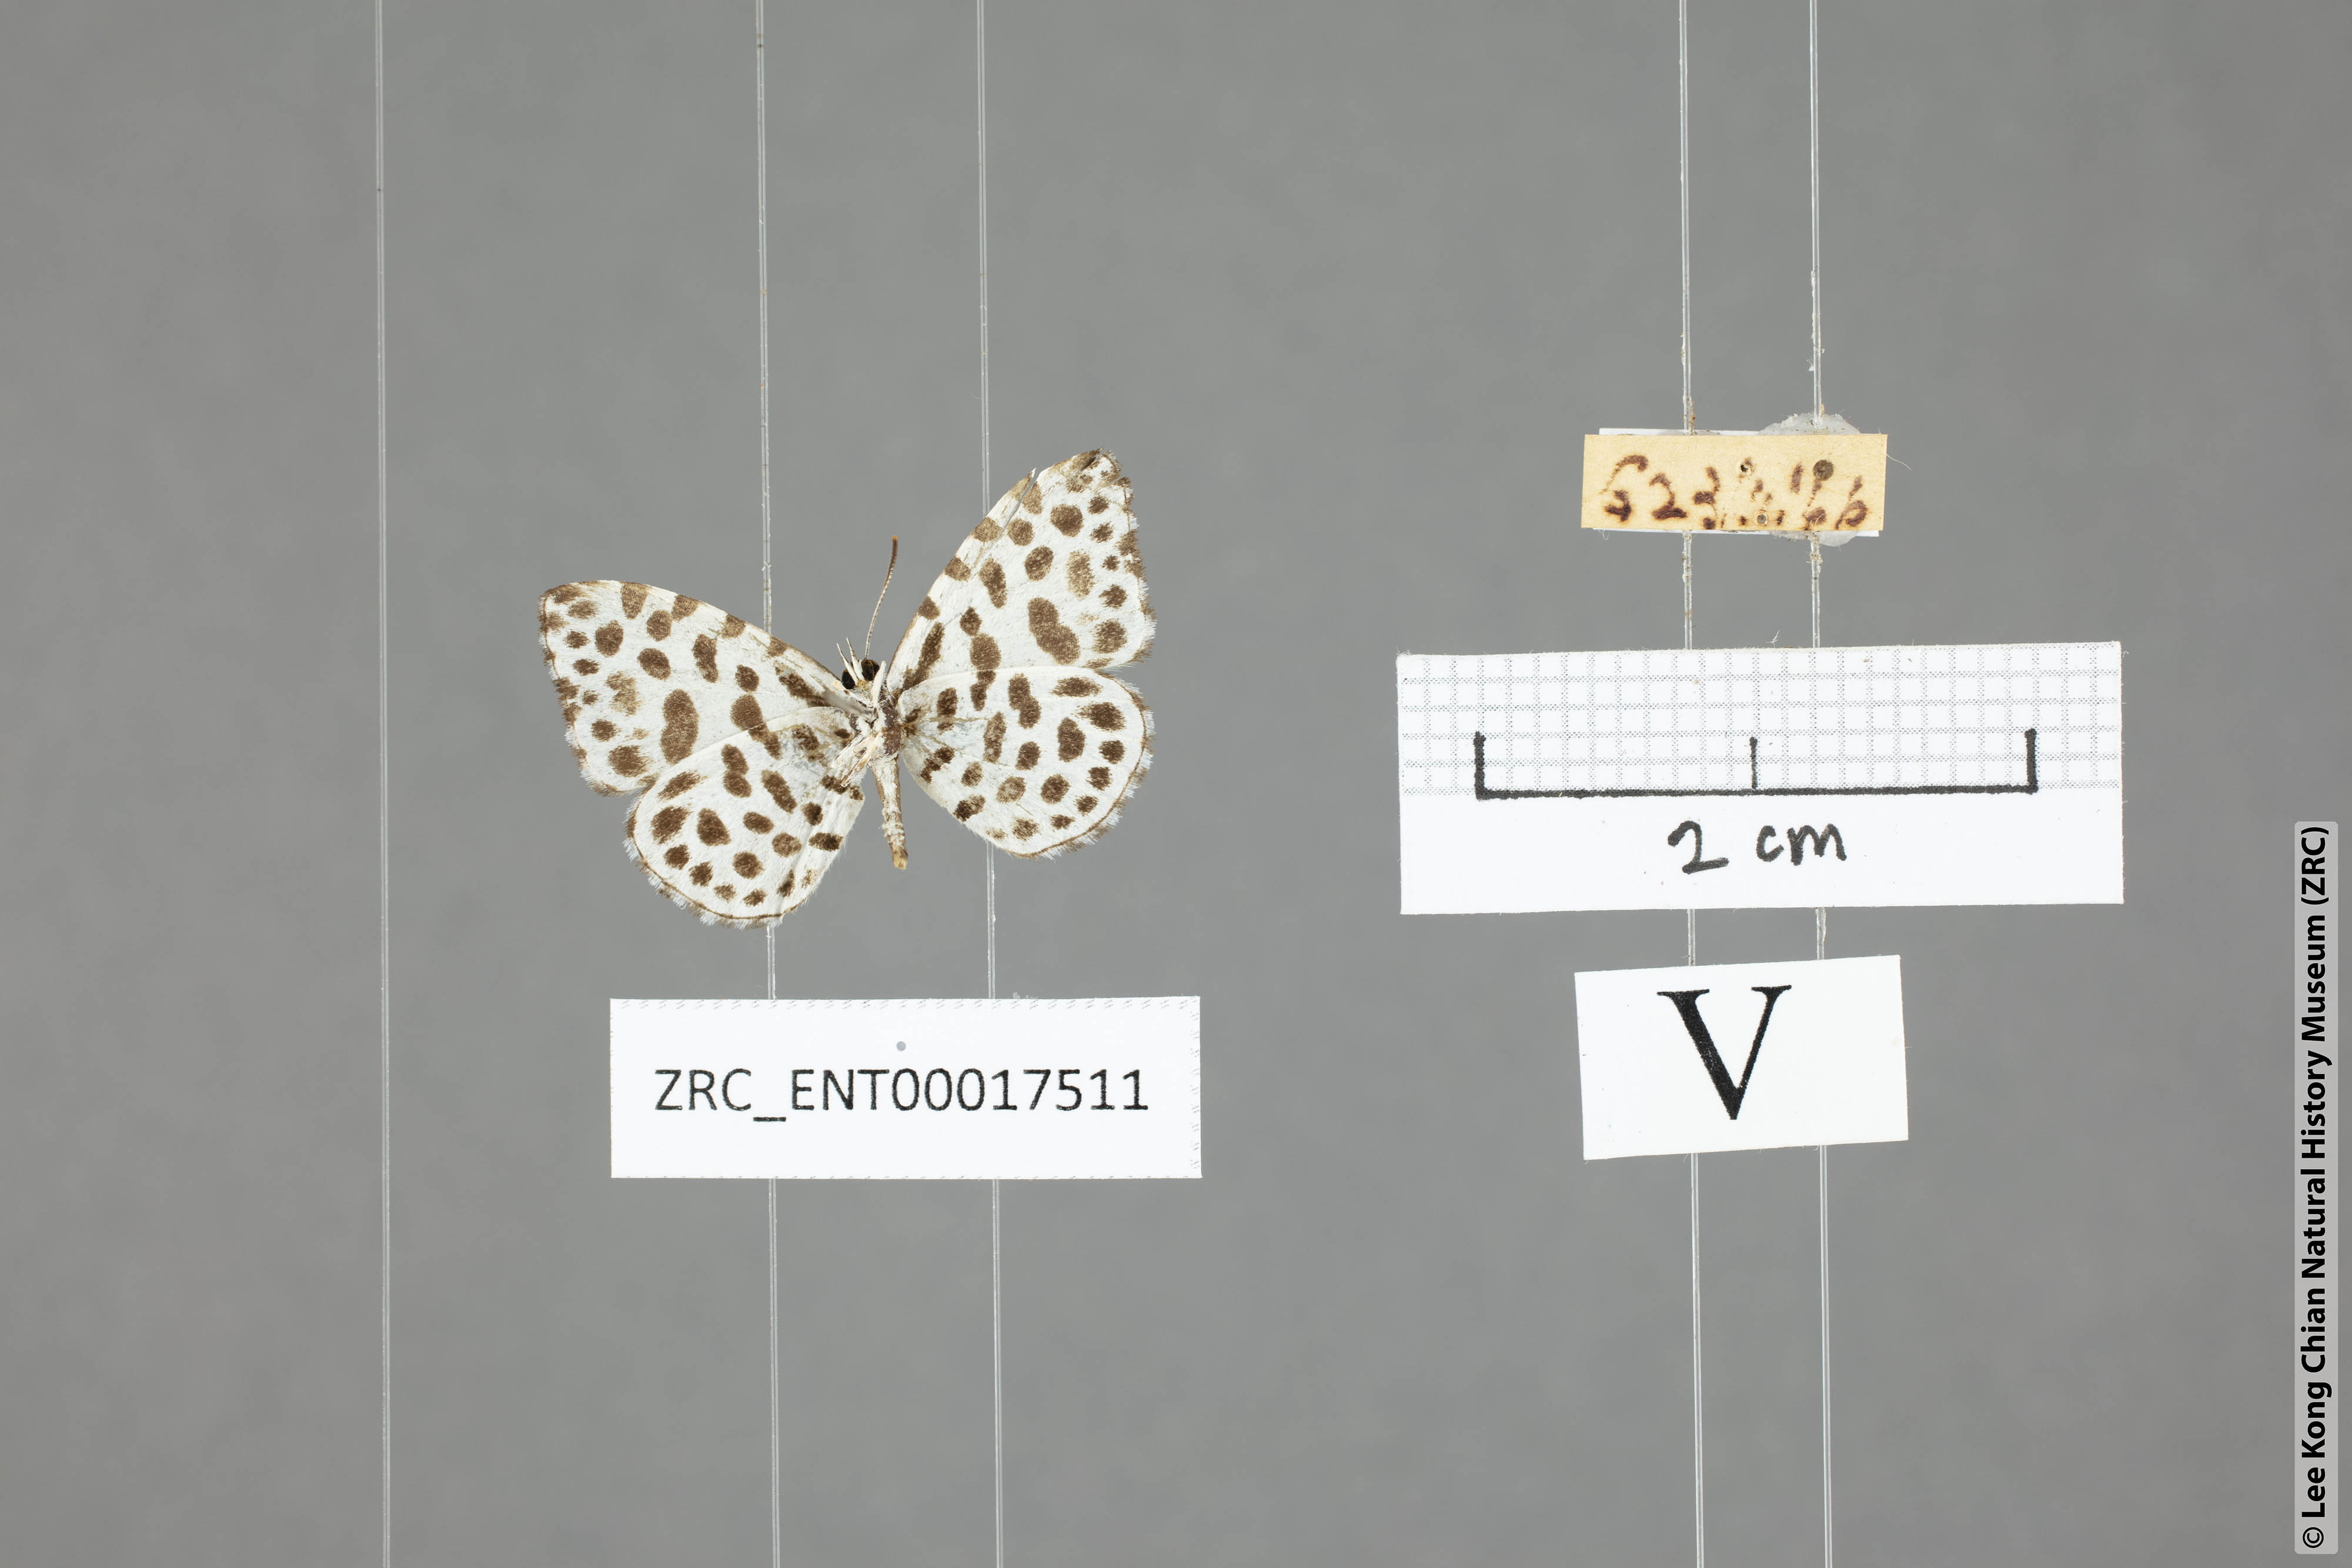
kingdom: Animalia
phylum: Arthropoda
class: Insecta
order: Lepidoptera
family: Lycaenidae
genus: Taraka
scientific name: Taraka hamada
